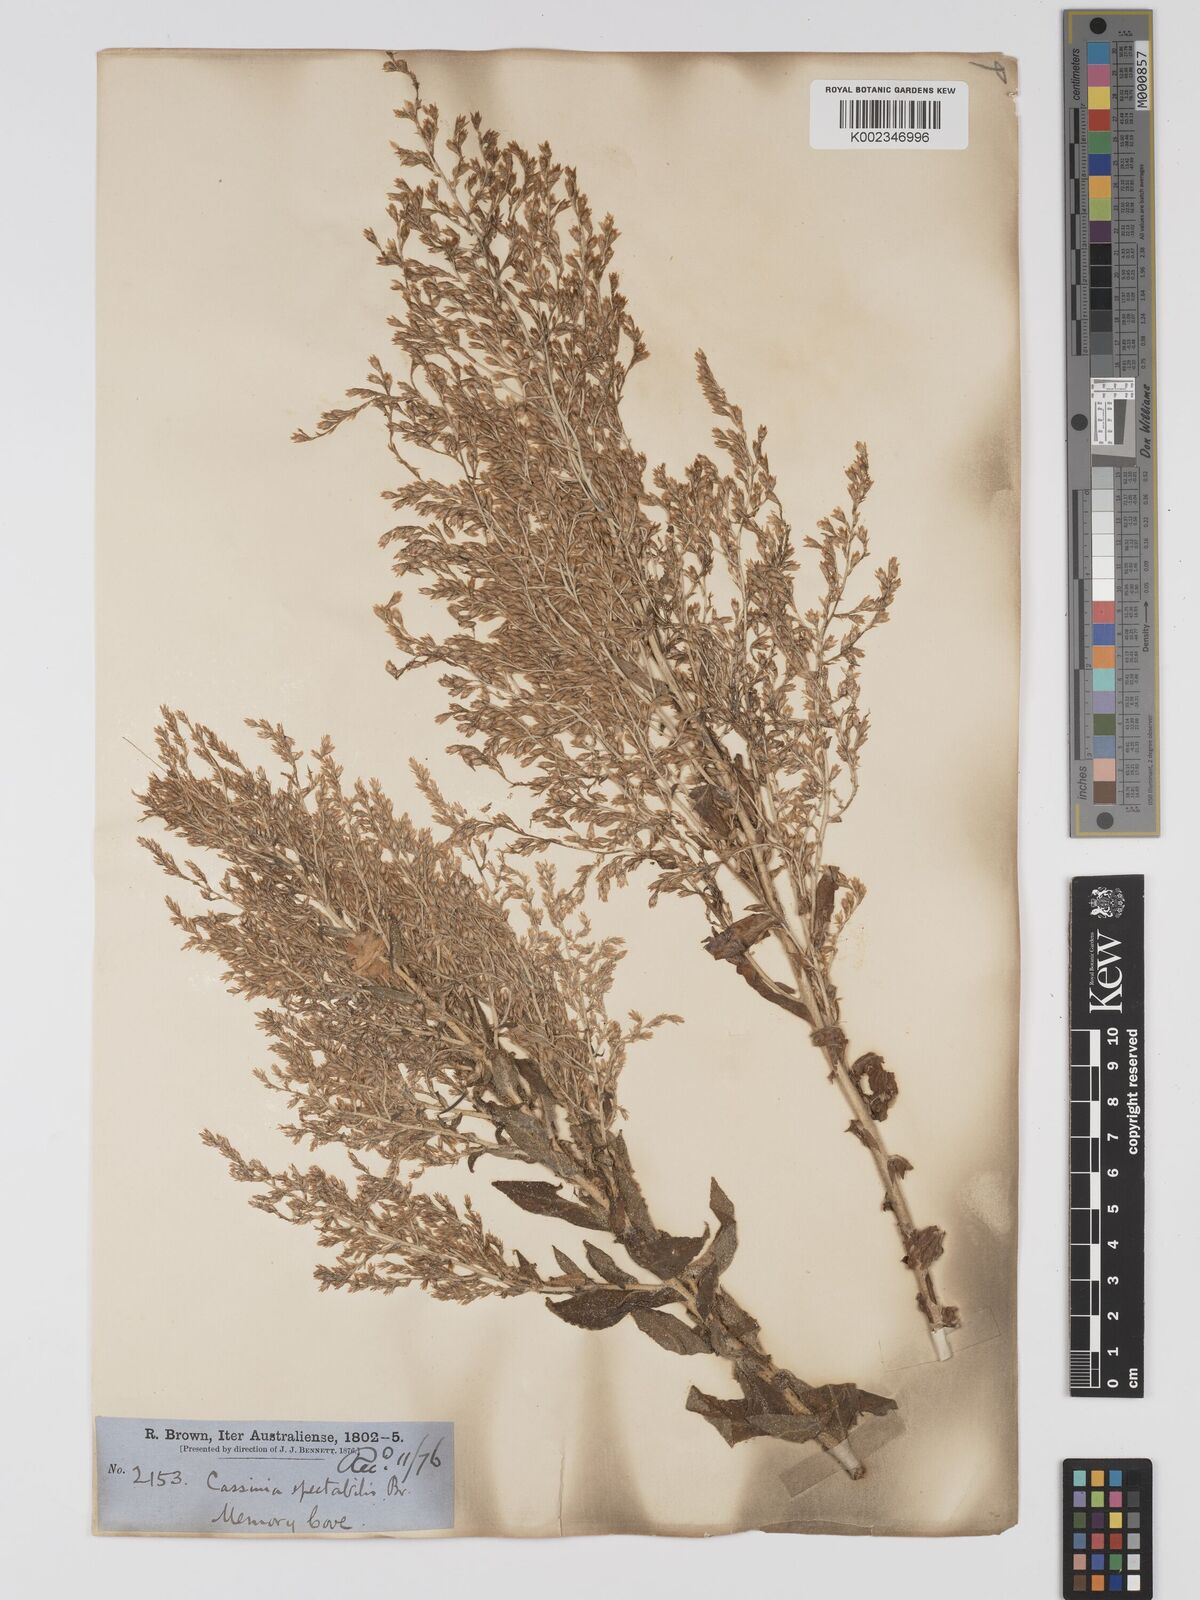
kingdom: Plantae
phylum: Tracheophyta
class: Magnoliopsida
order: Asterales
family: Asteraceae
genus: Apalochlamys
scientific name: Apalochlamys spectabilis
